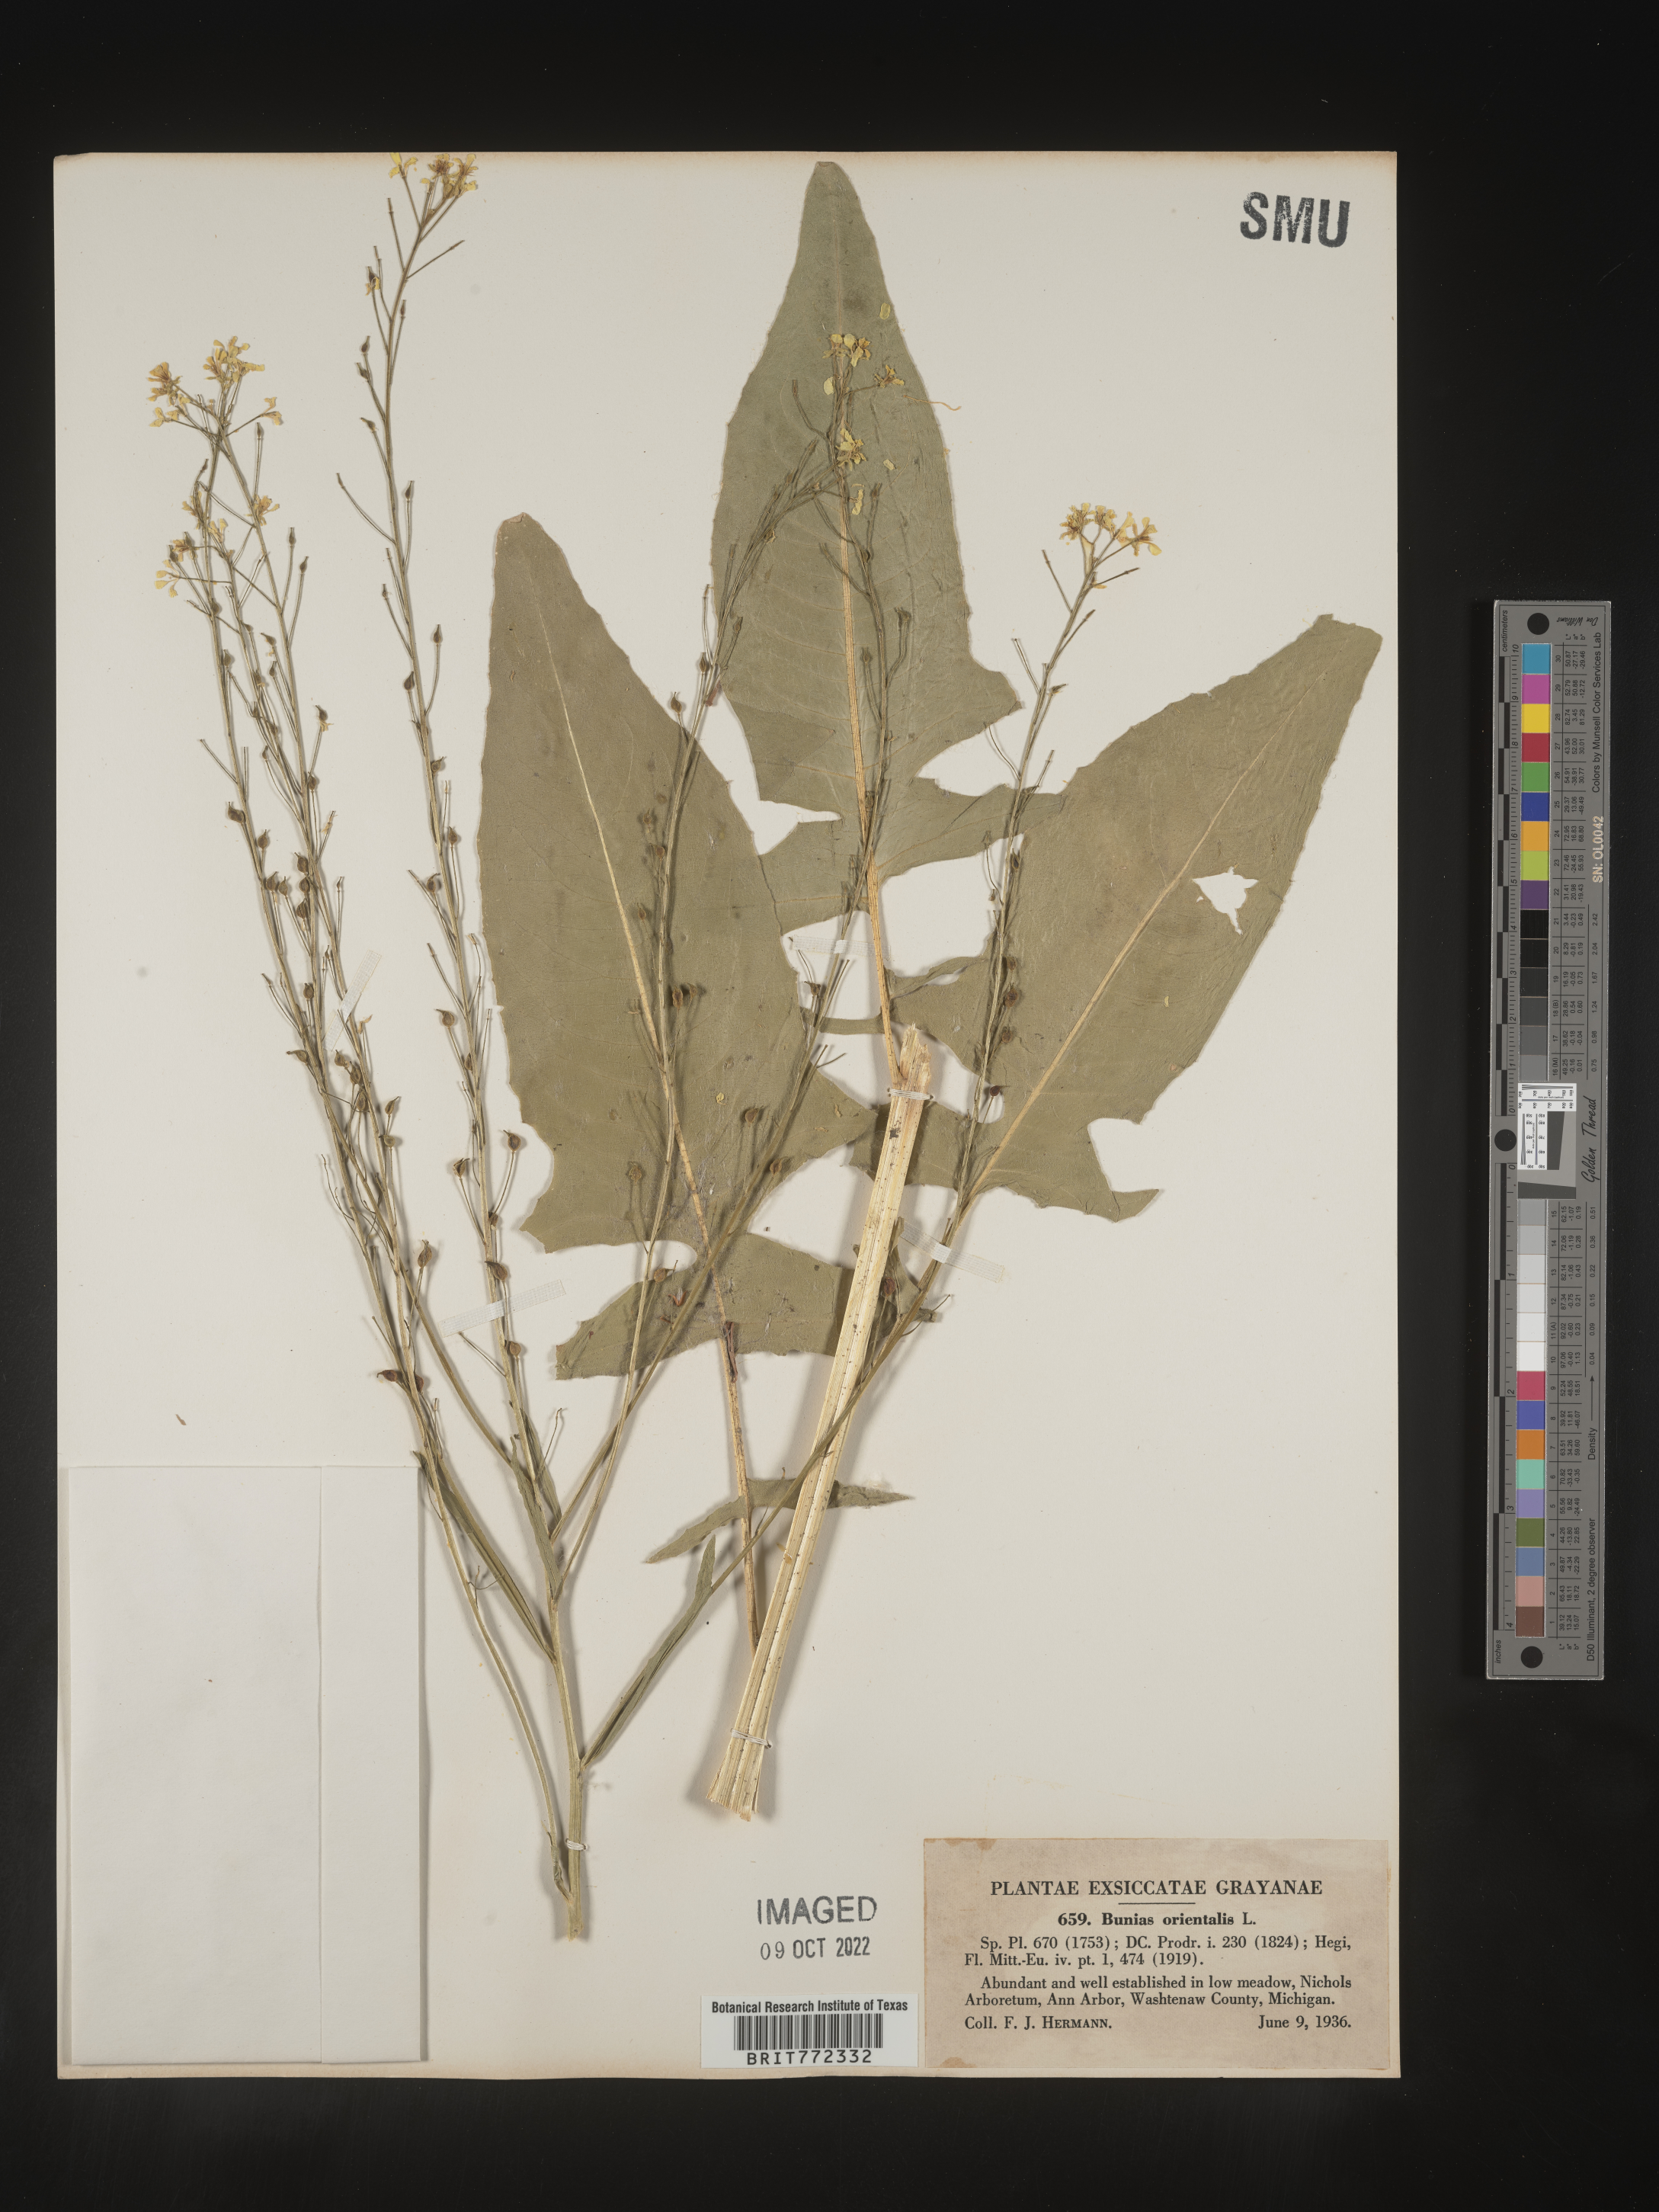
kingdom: Plantae
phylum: Tracheophyta
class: Magnoliopsida
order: Brassicales
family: Brassicaceae
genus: Bunias
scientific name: Bunias orientalis
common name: Warty-cabbage
